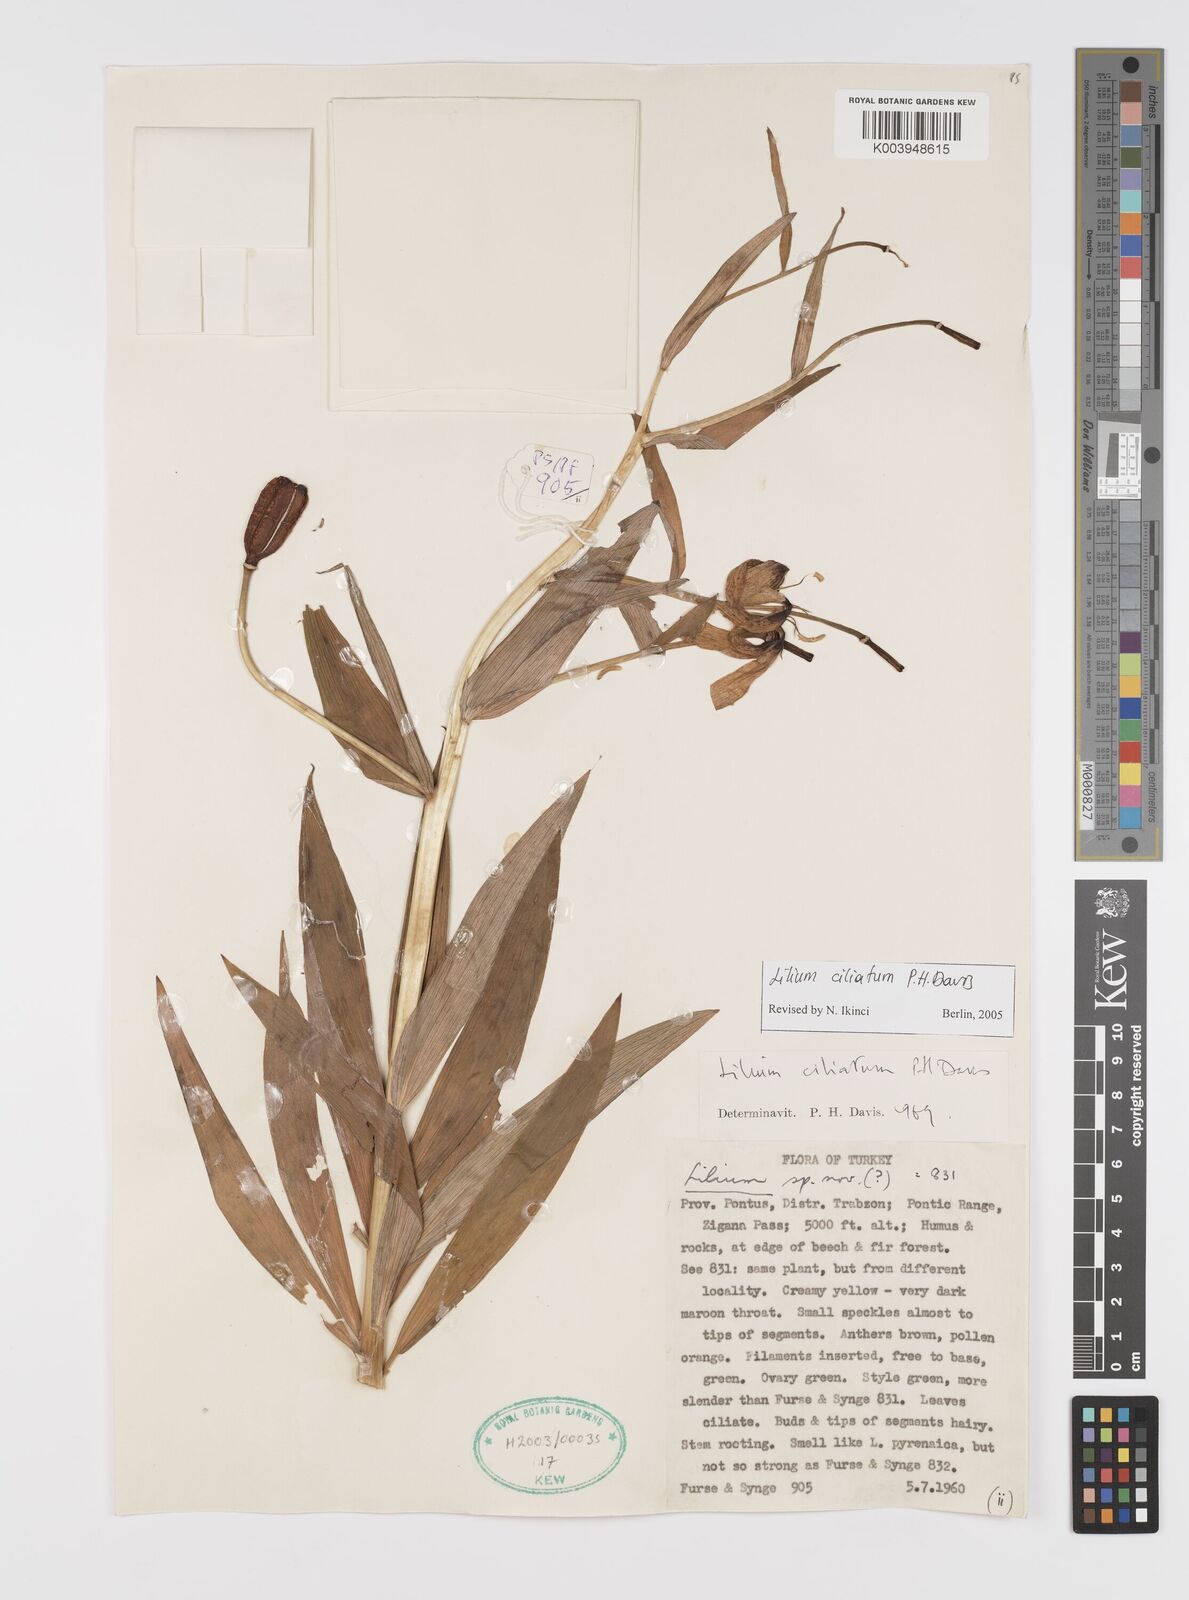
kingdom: Plantae
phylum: Tracheophyta
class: Liliopsida
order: Liliales
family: Liliaceae
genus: Lilium
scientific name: Lilium ciliatum
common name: Ciliate lily
